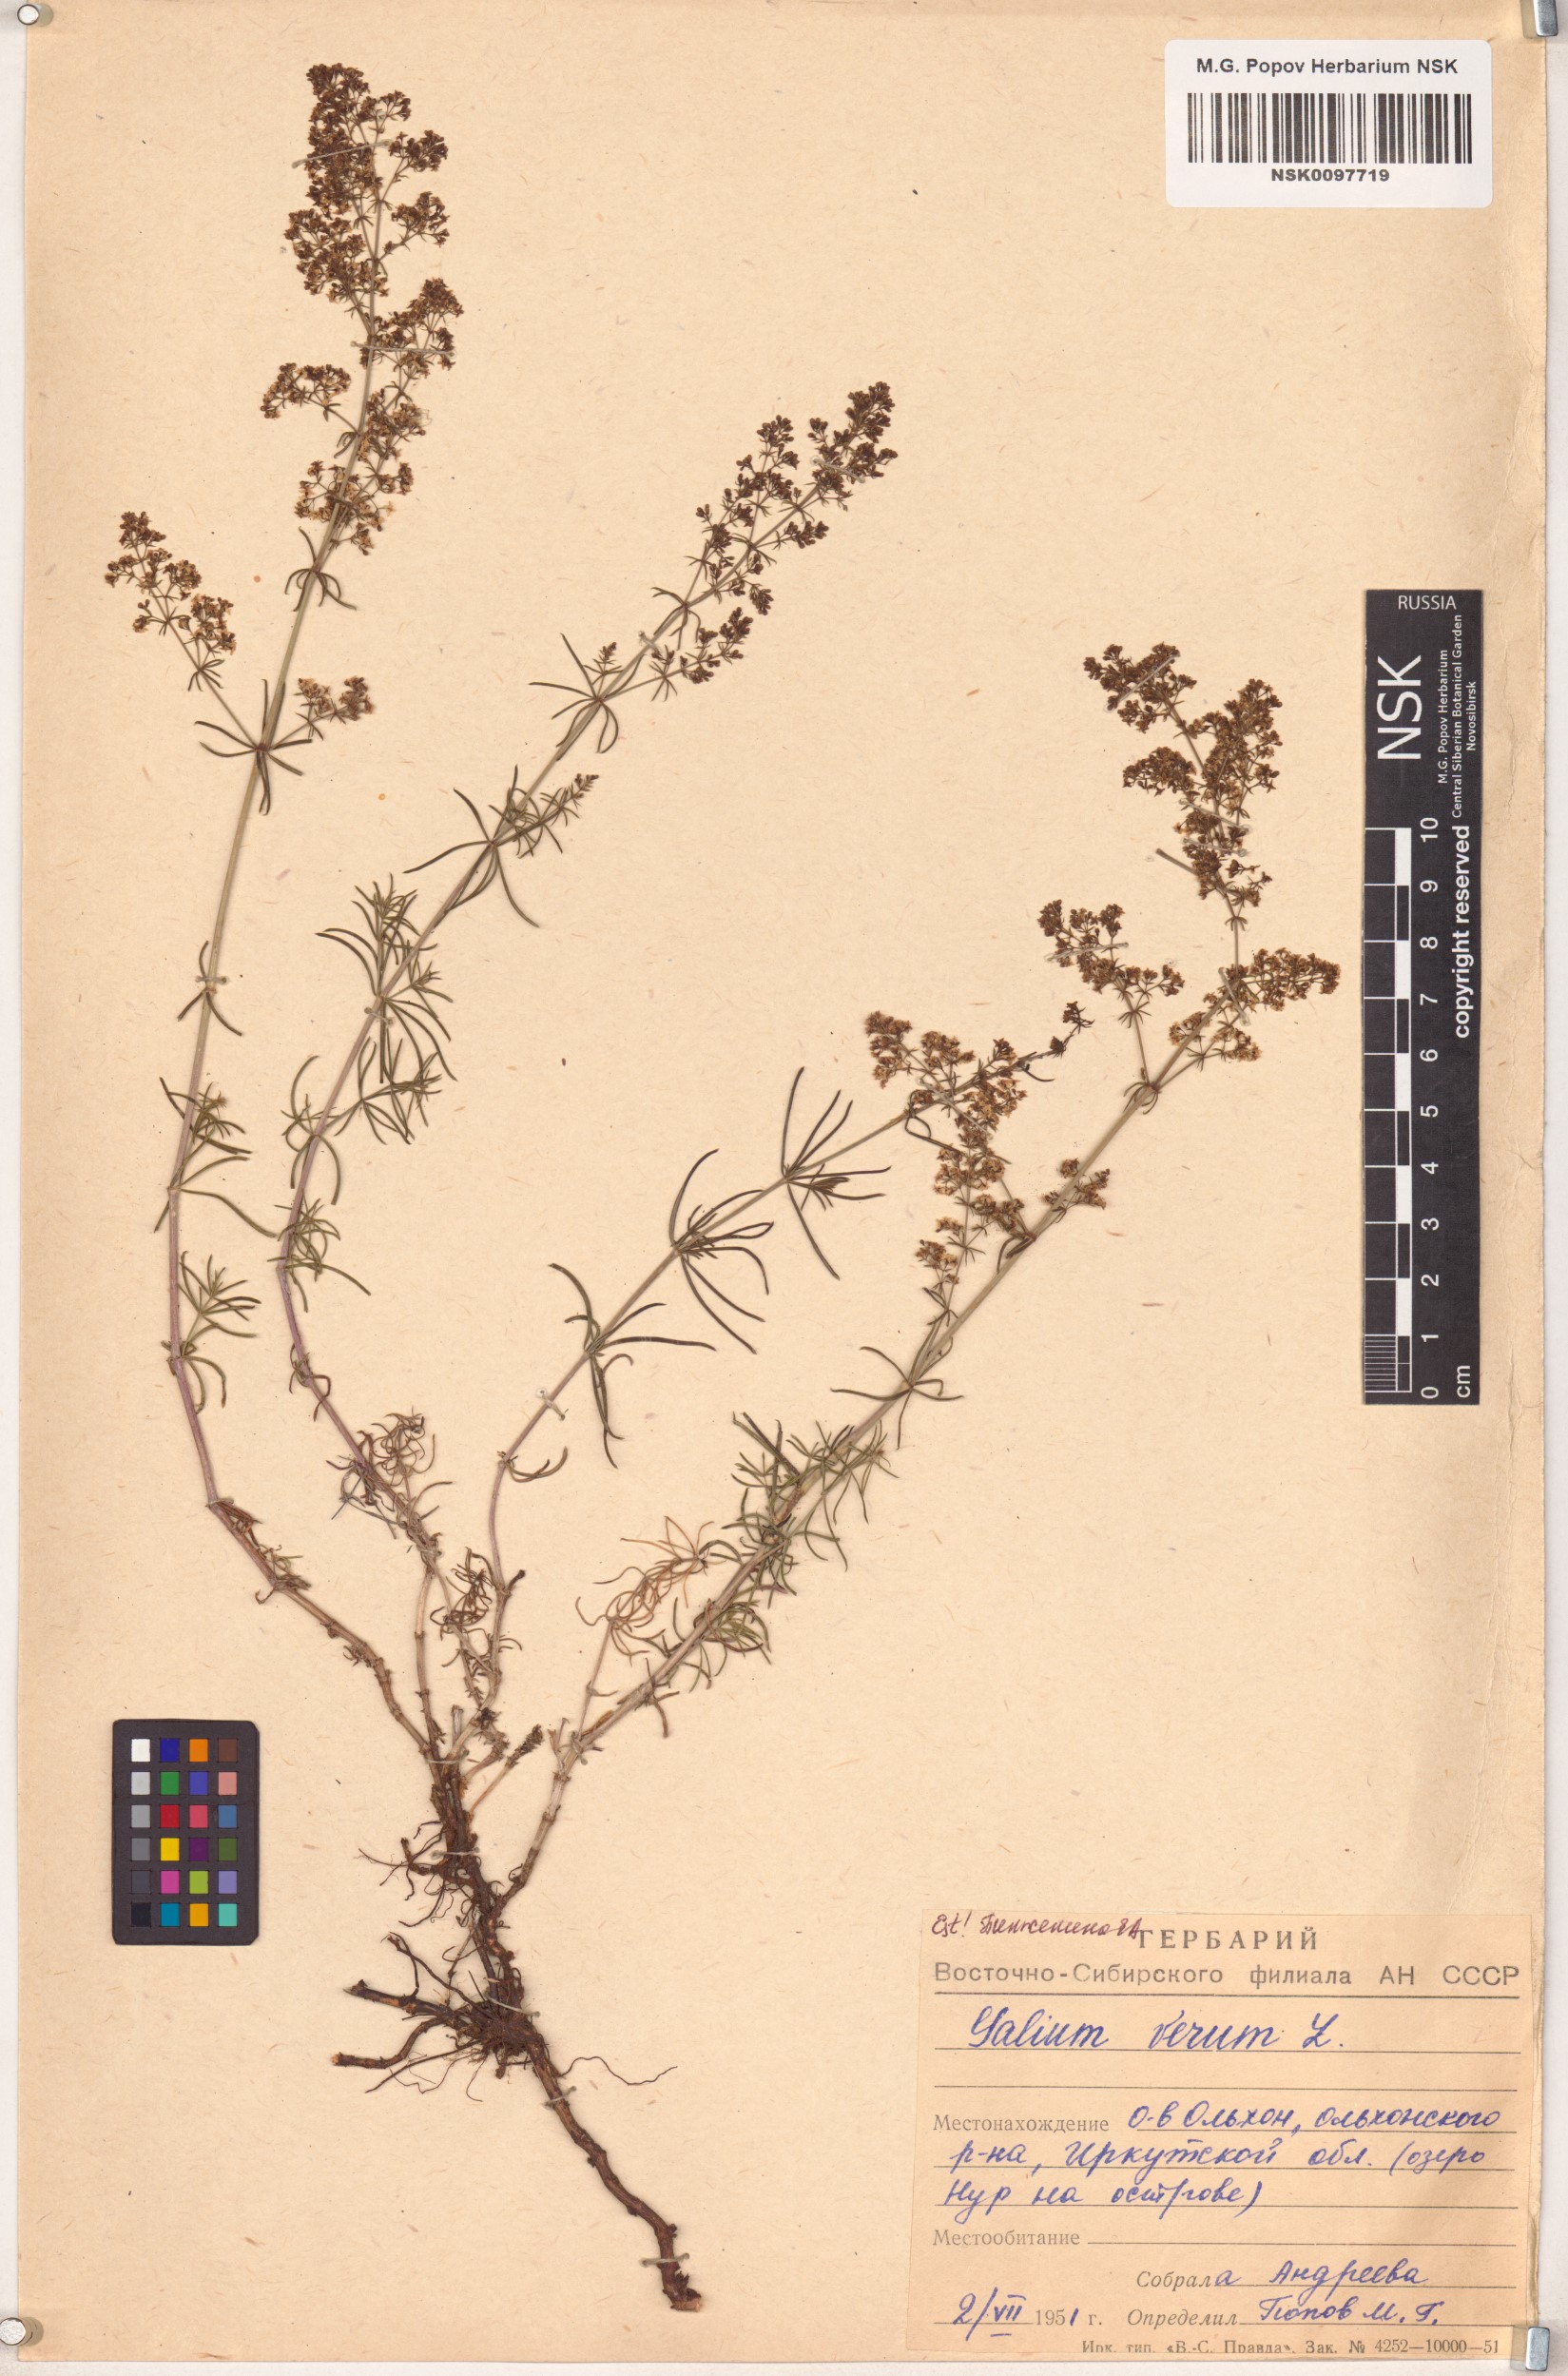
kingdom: Plantae
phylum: Tracheophyta
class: Magnoliopsida
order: Gentianales
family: Rubiaceae
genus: Galium
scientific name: Galium verum
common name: Lady's bedstraw
